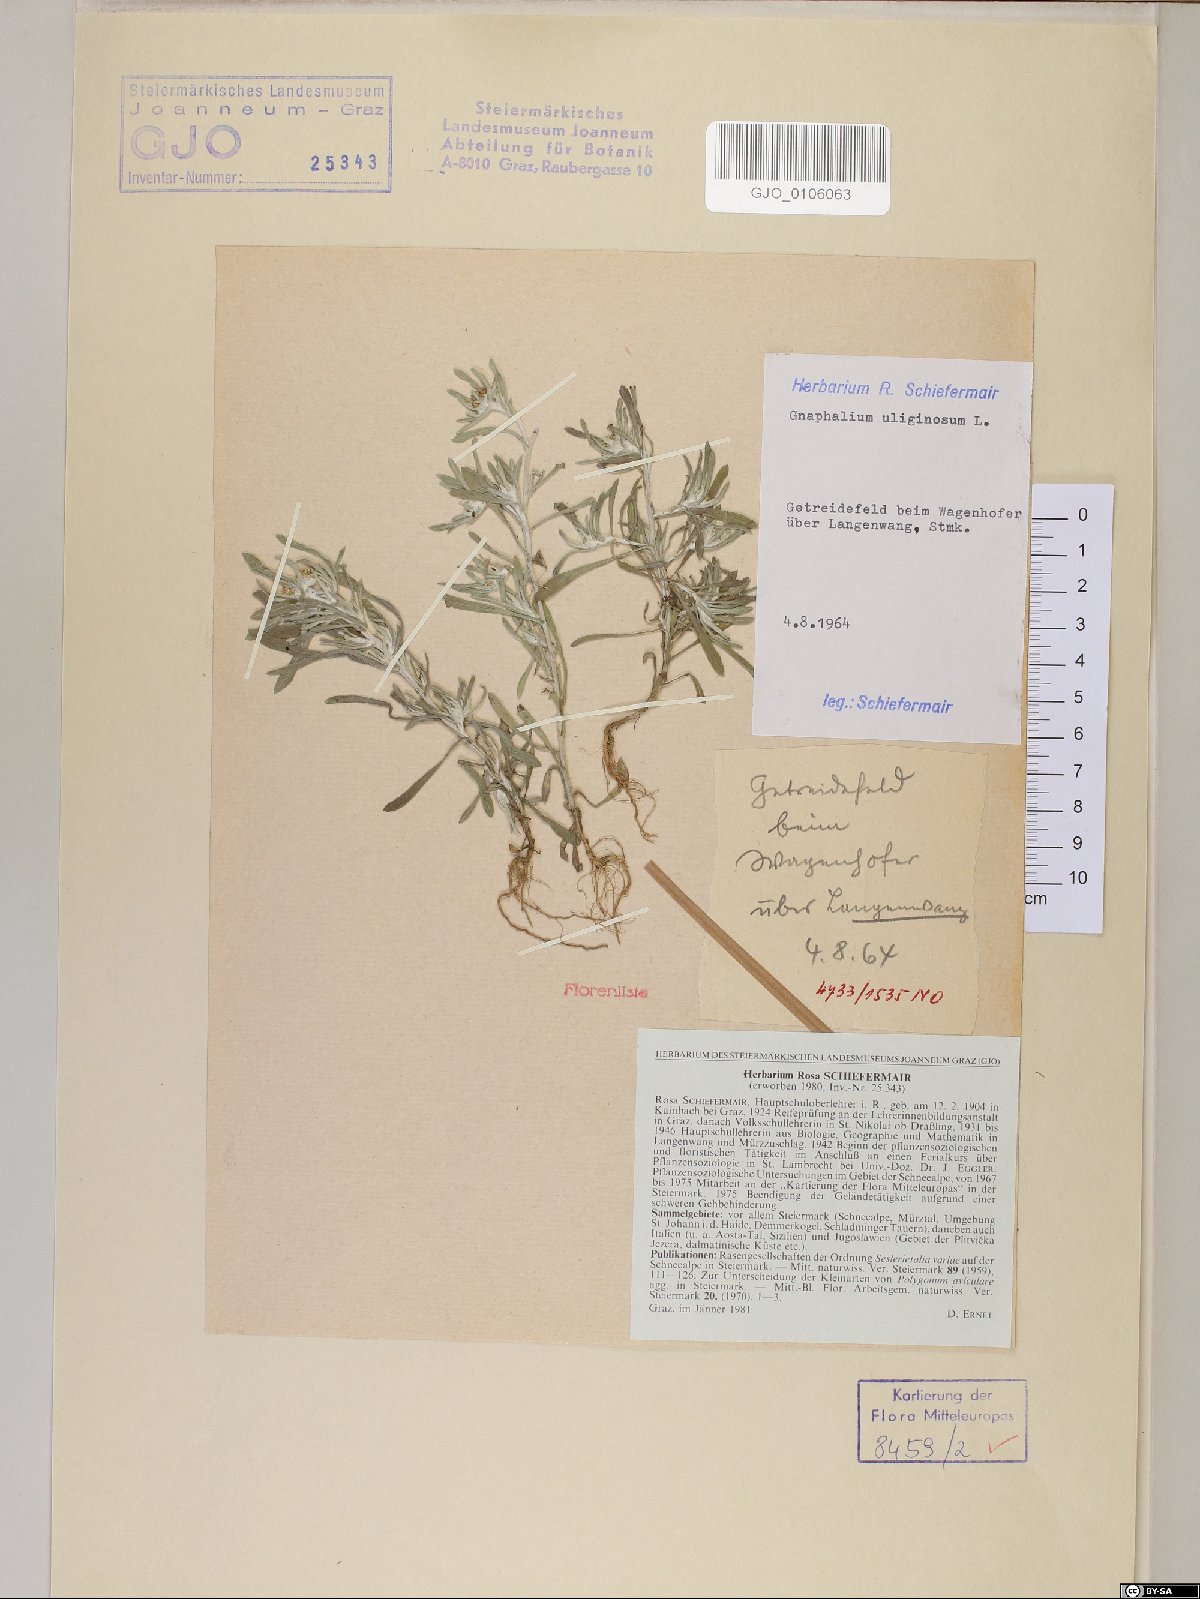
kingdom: Plantae
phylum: Tracheophyta
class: Magnoliopsida
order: Asterales
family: Asteraceae
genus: Gnaphalium
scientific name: Gnaphalium uliginosum
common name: Marsh cudweed
